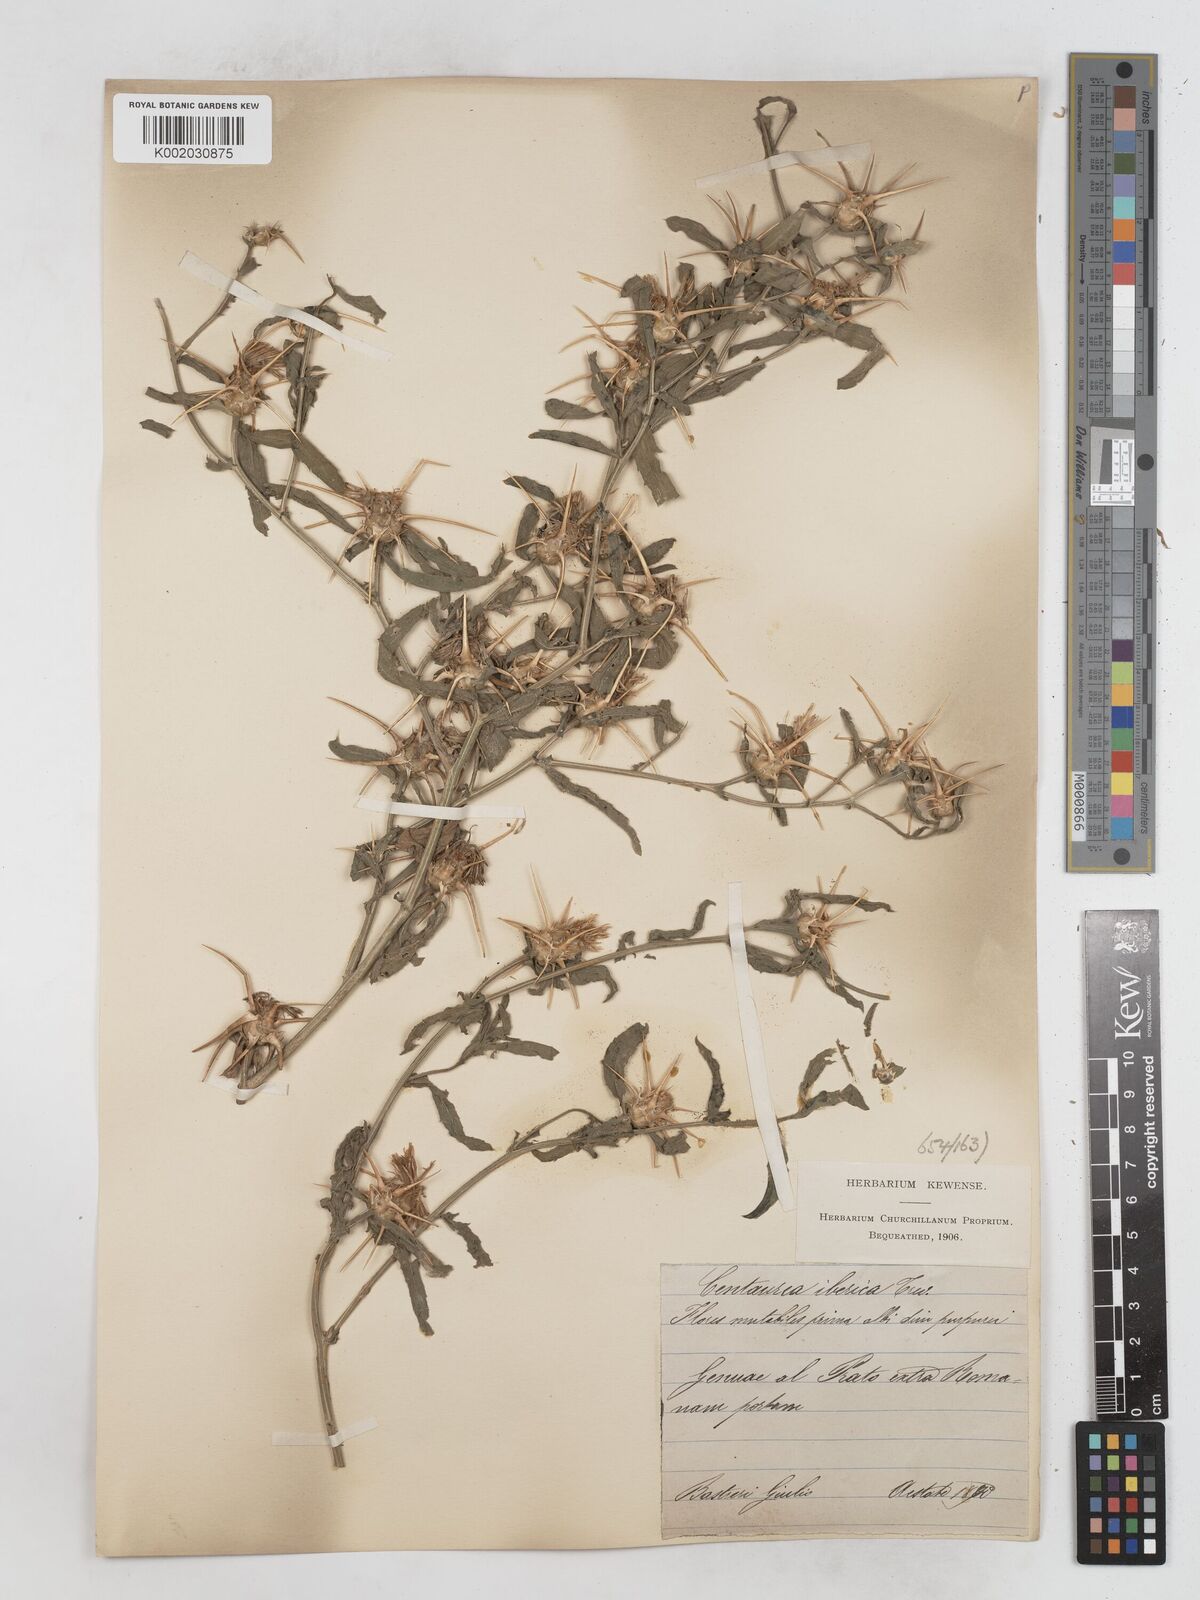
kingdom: Plantae
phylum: Tracheophyta
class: Magnoliopsida
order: Asterales
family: Asteraceae
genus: Centaurea
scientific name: Centaurea iberica
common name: Iberian knapweed
